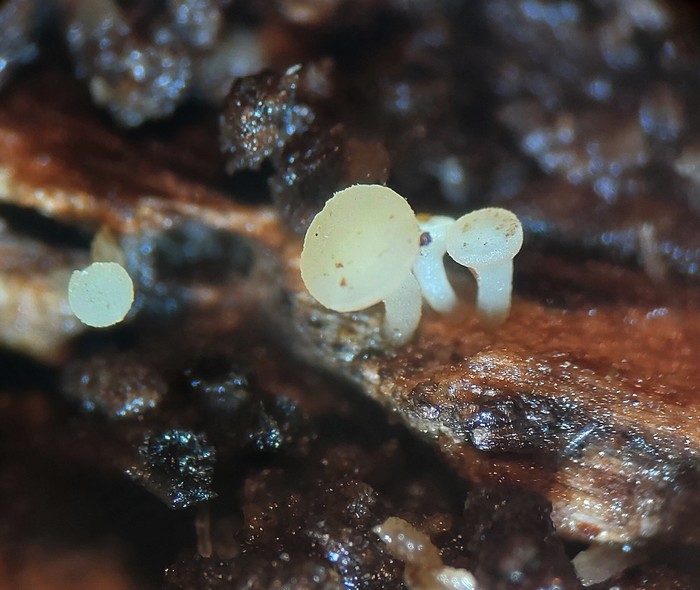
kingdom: Fungi
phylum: Ascomycota
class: Leotiomycetes
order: Helotiales
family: Helotiaceae
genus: Hymenoscyphus
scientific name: Hymenoscyphus calyculus
